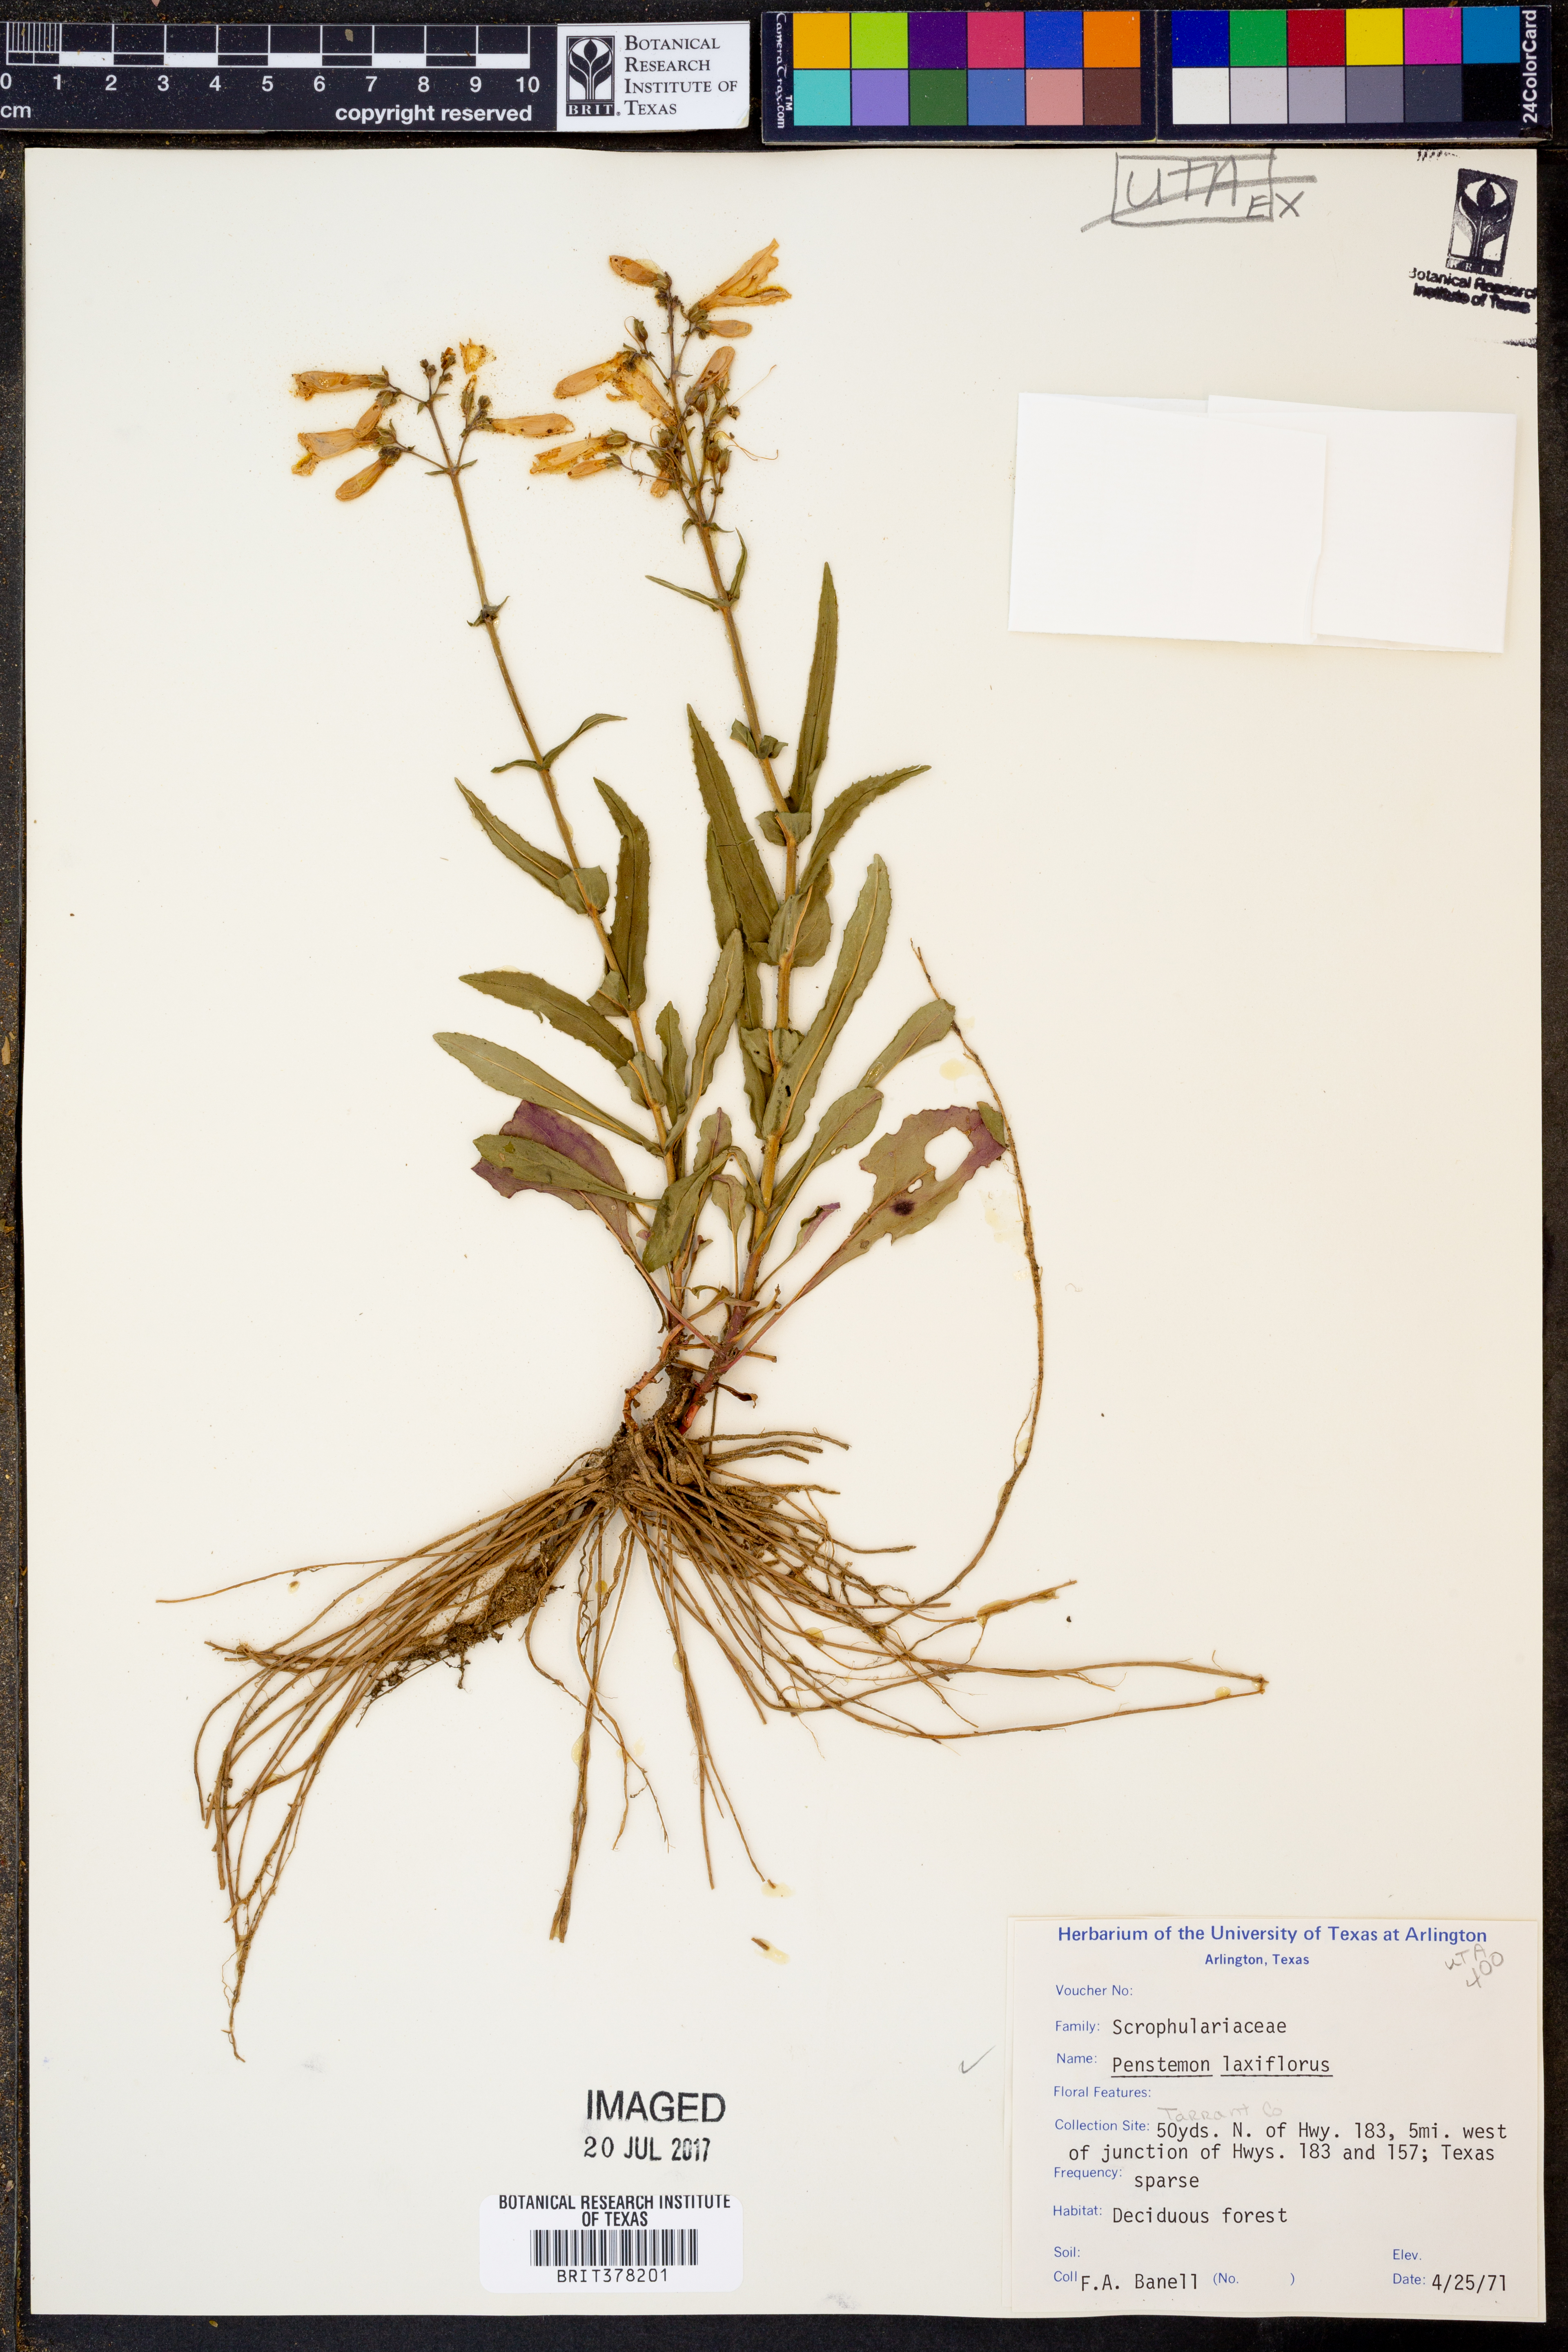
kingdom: Plantae
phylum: Tracheophyta
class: Magnoliopsida
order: Lamiales
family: Plantaginaceae
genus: Penstemon
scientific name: Penstemon laxiflorus
